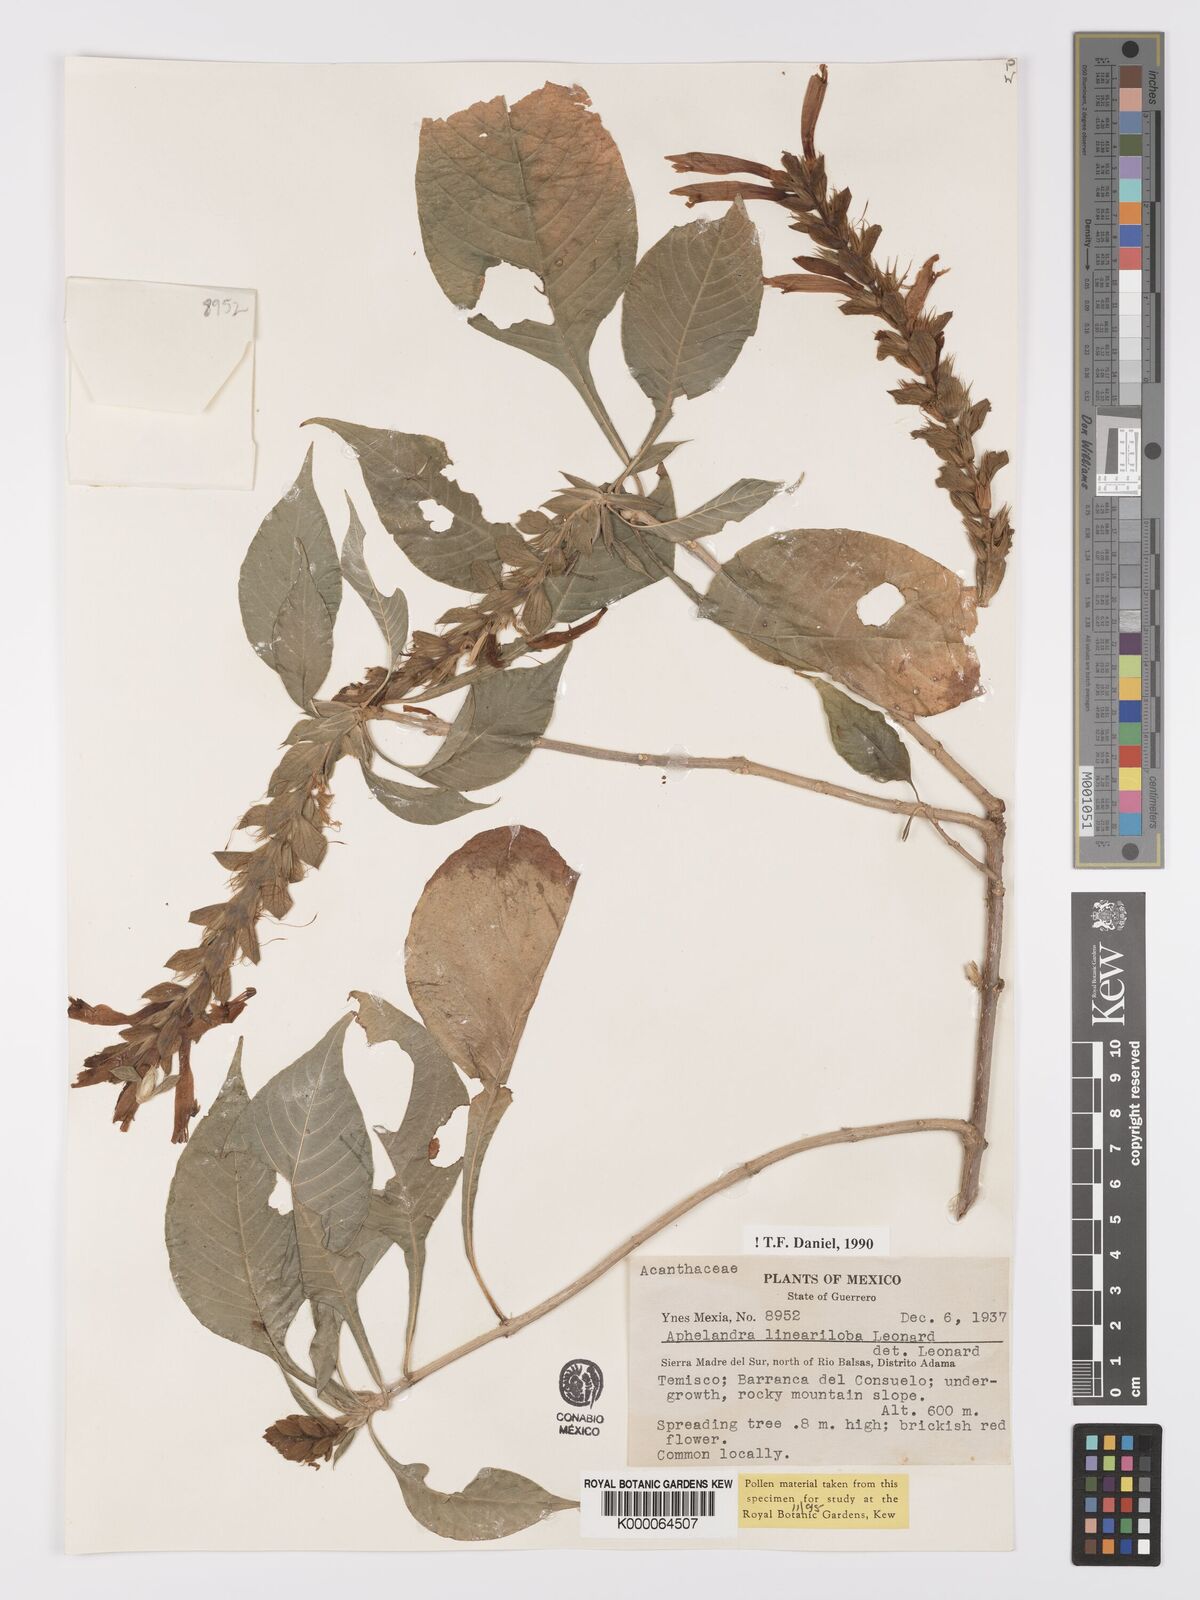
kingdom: Plantae
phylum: Tracheophyta
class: Magnoliopsida
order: Lamiales
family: Acanthaceae
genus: Aphelandra
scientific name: Aphelandra lineariloba
